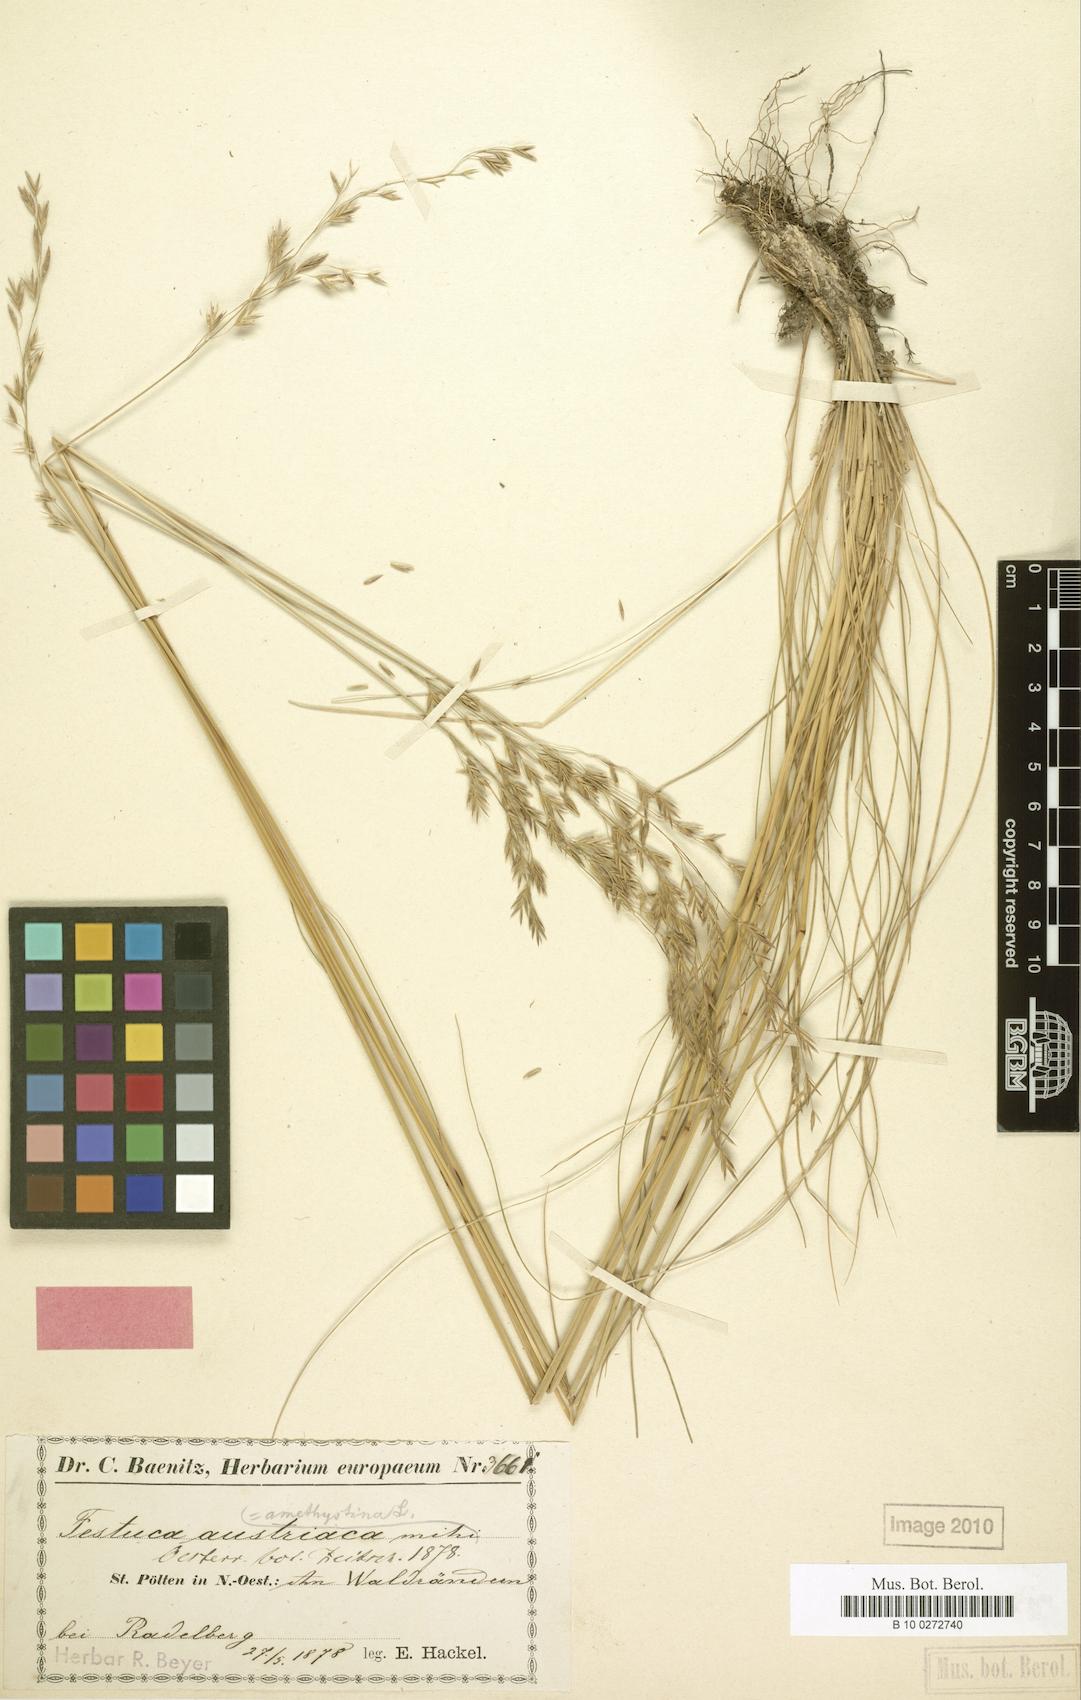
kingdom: Plantae
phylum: Tracheophyta
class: Liliopsida
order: Poales
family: Poaceae
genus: Festuca
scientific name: Festuca amethystina
